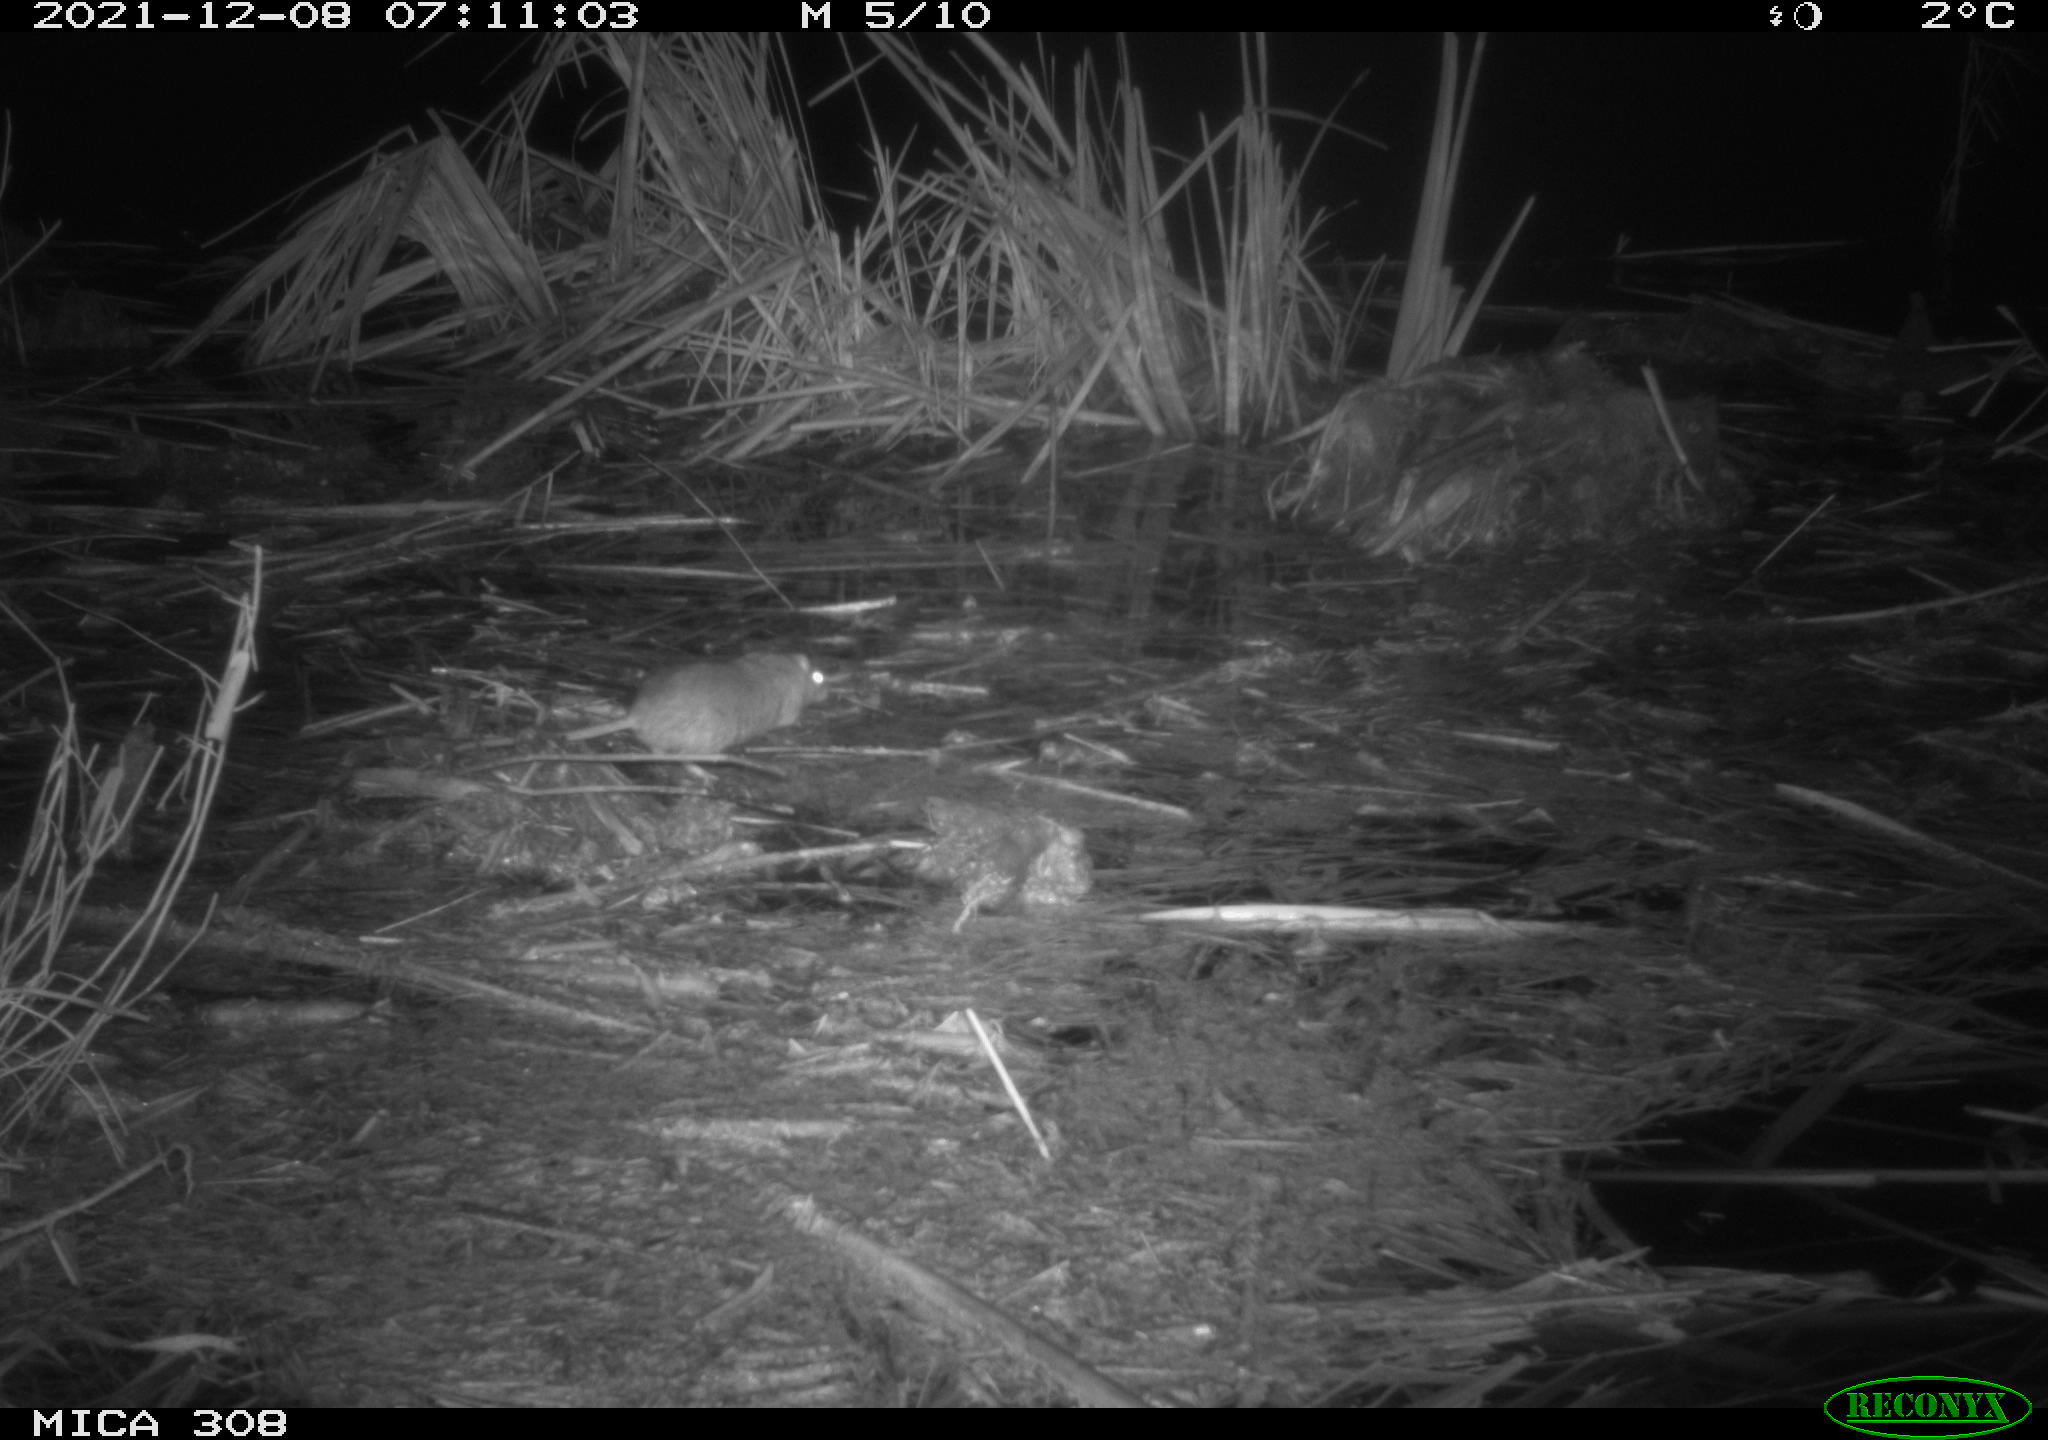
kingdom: Animalia
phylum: Chordata
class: Mammalia
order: Rodentia
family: Muridae
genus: Rattus
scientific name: Rattus norvegicus
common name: Brown rat
